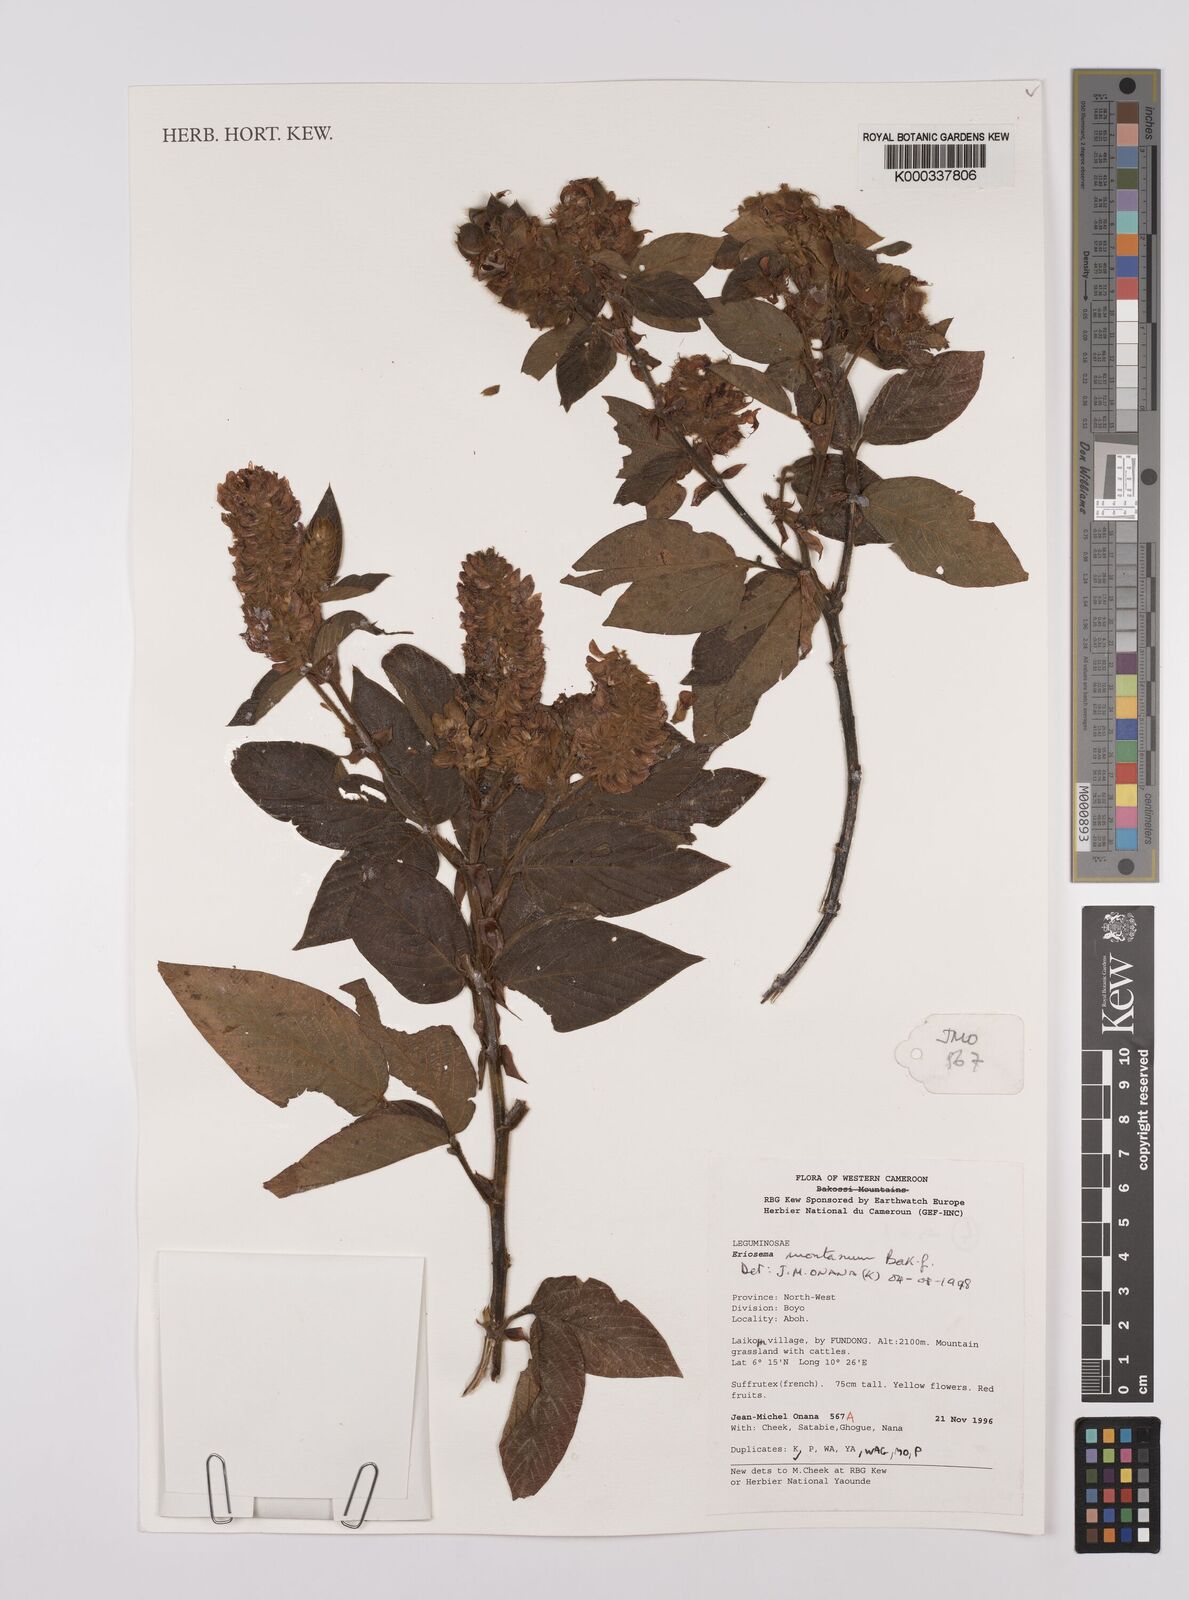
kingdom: Plantae
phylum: Tracheophyta
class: Magnoliopsida
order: Fabales
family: Fabaceae
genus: Eriosema
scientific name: Eriosema montanum
